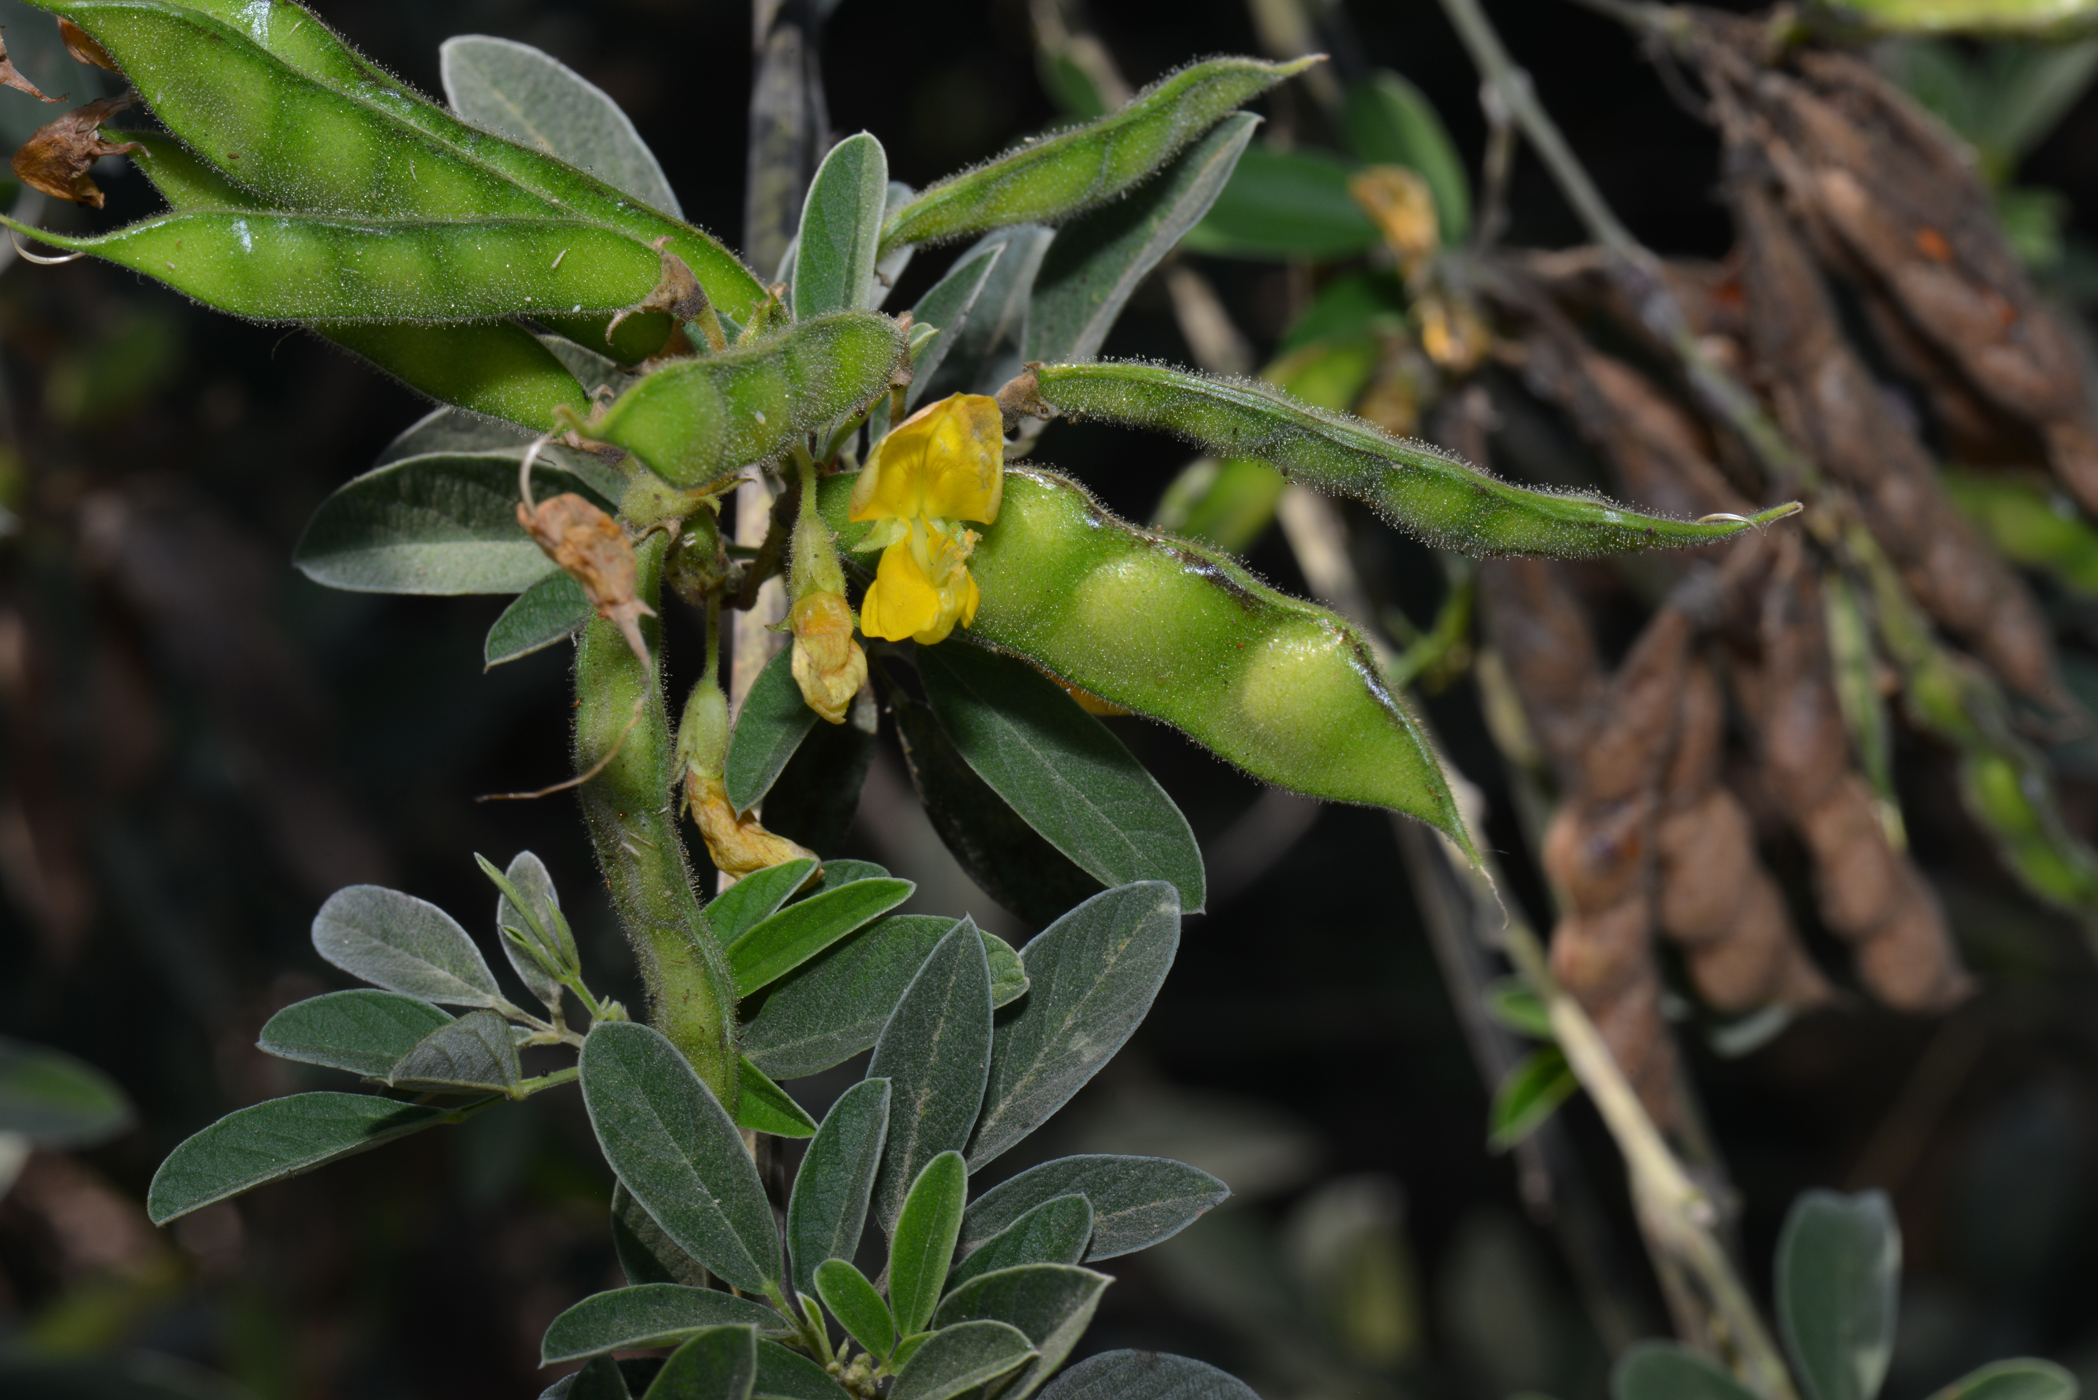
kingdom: Plantae
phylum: Tracheophyta
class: Magnoliopsida
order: Fabales
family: Fabaceae
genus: Cajanus
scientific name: Cajanus cajan
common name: Pigeonpea
